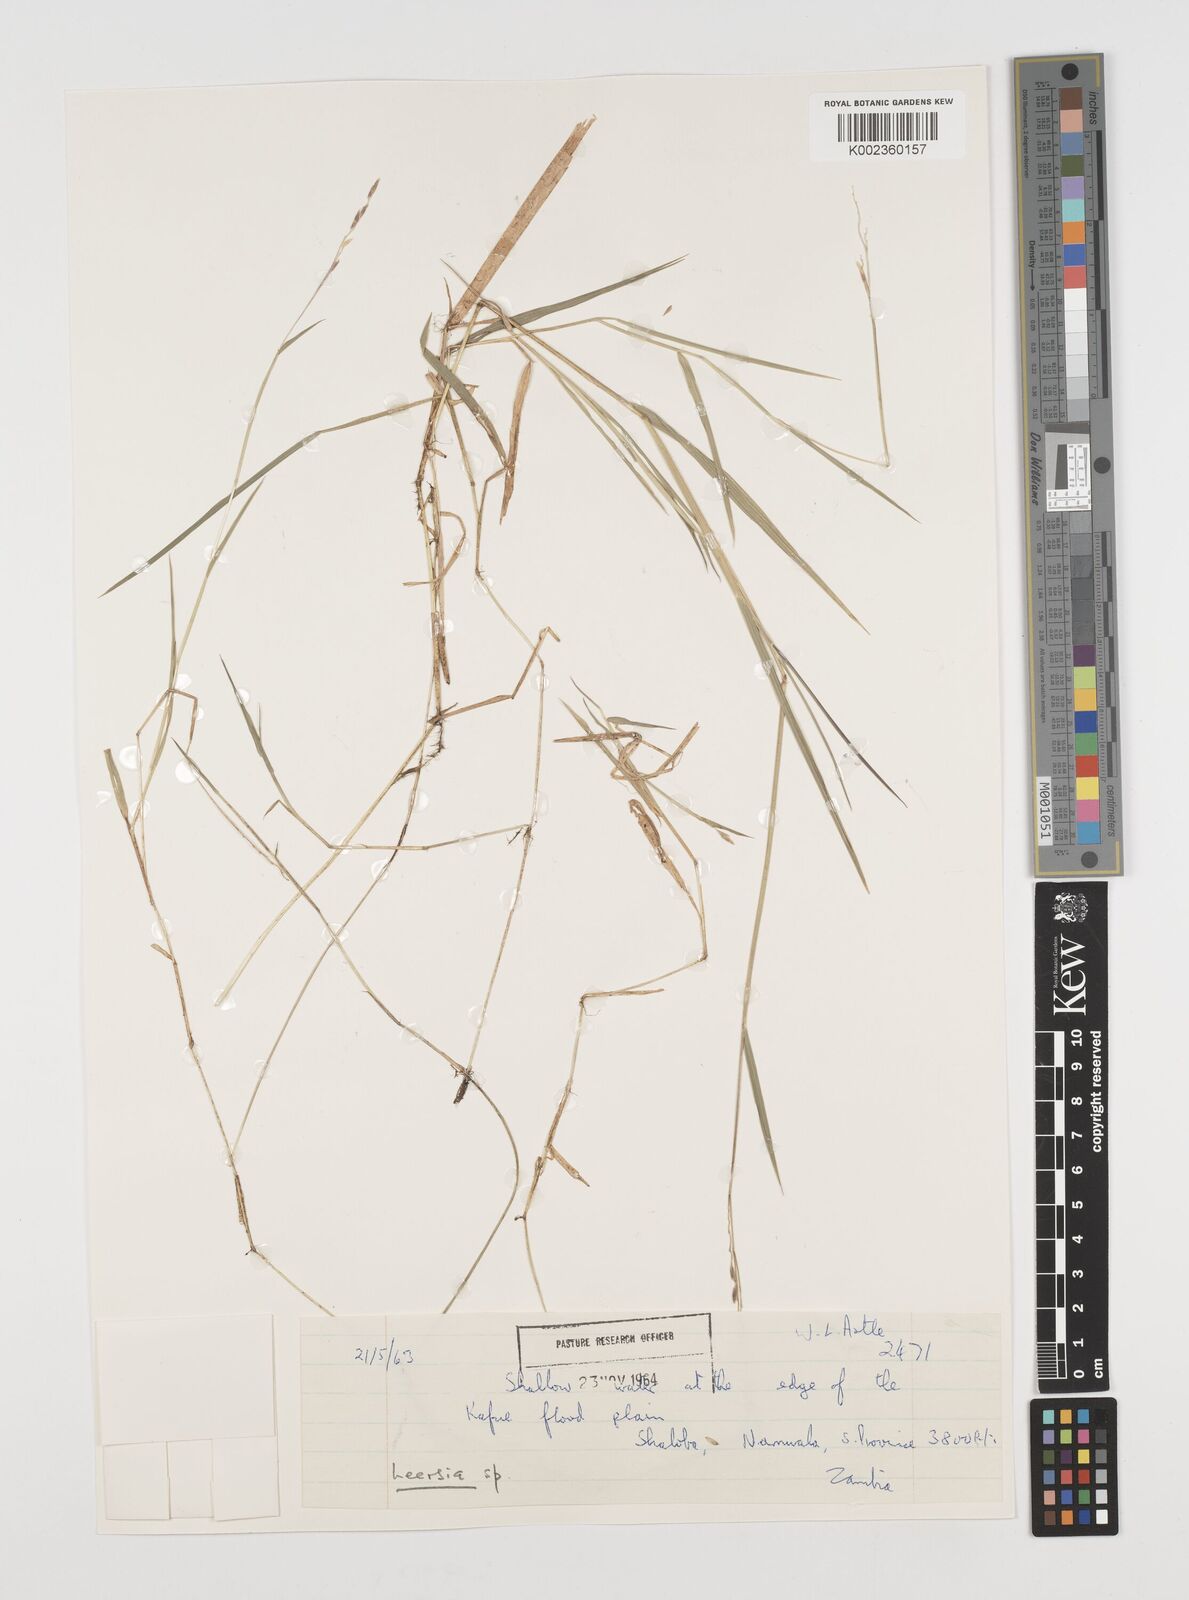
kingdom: Plantae
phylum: Tracheophyta
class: Liliopsida
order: Poales
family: Poaceae
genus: Leersia
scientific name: Leersia hexandra
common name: Southern cut grass
